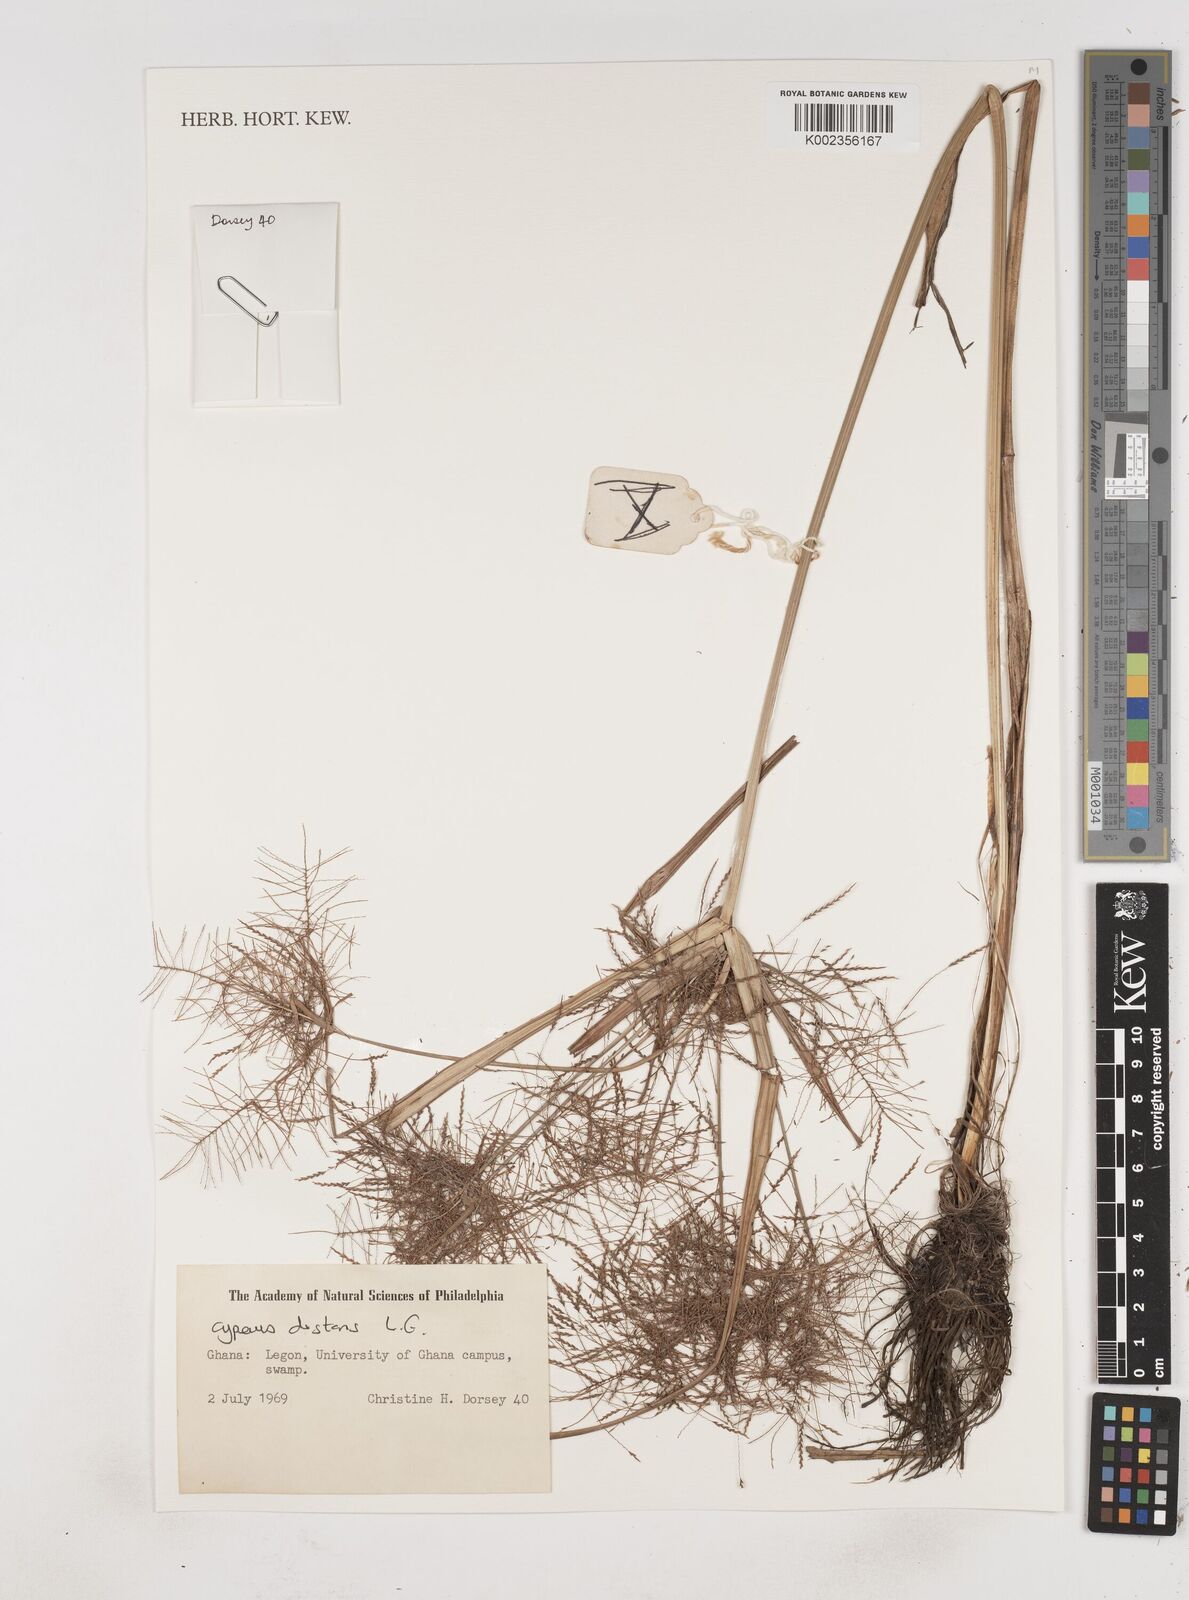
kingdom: Plantae
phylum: Tracheophyta
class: Liliopsida
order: Poales
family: Cyperaceae
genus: Cyperus
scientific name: Cyperus distans
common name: Slender cyperus
